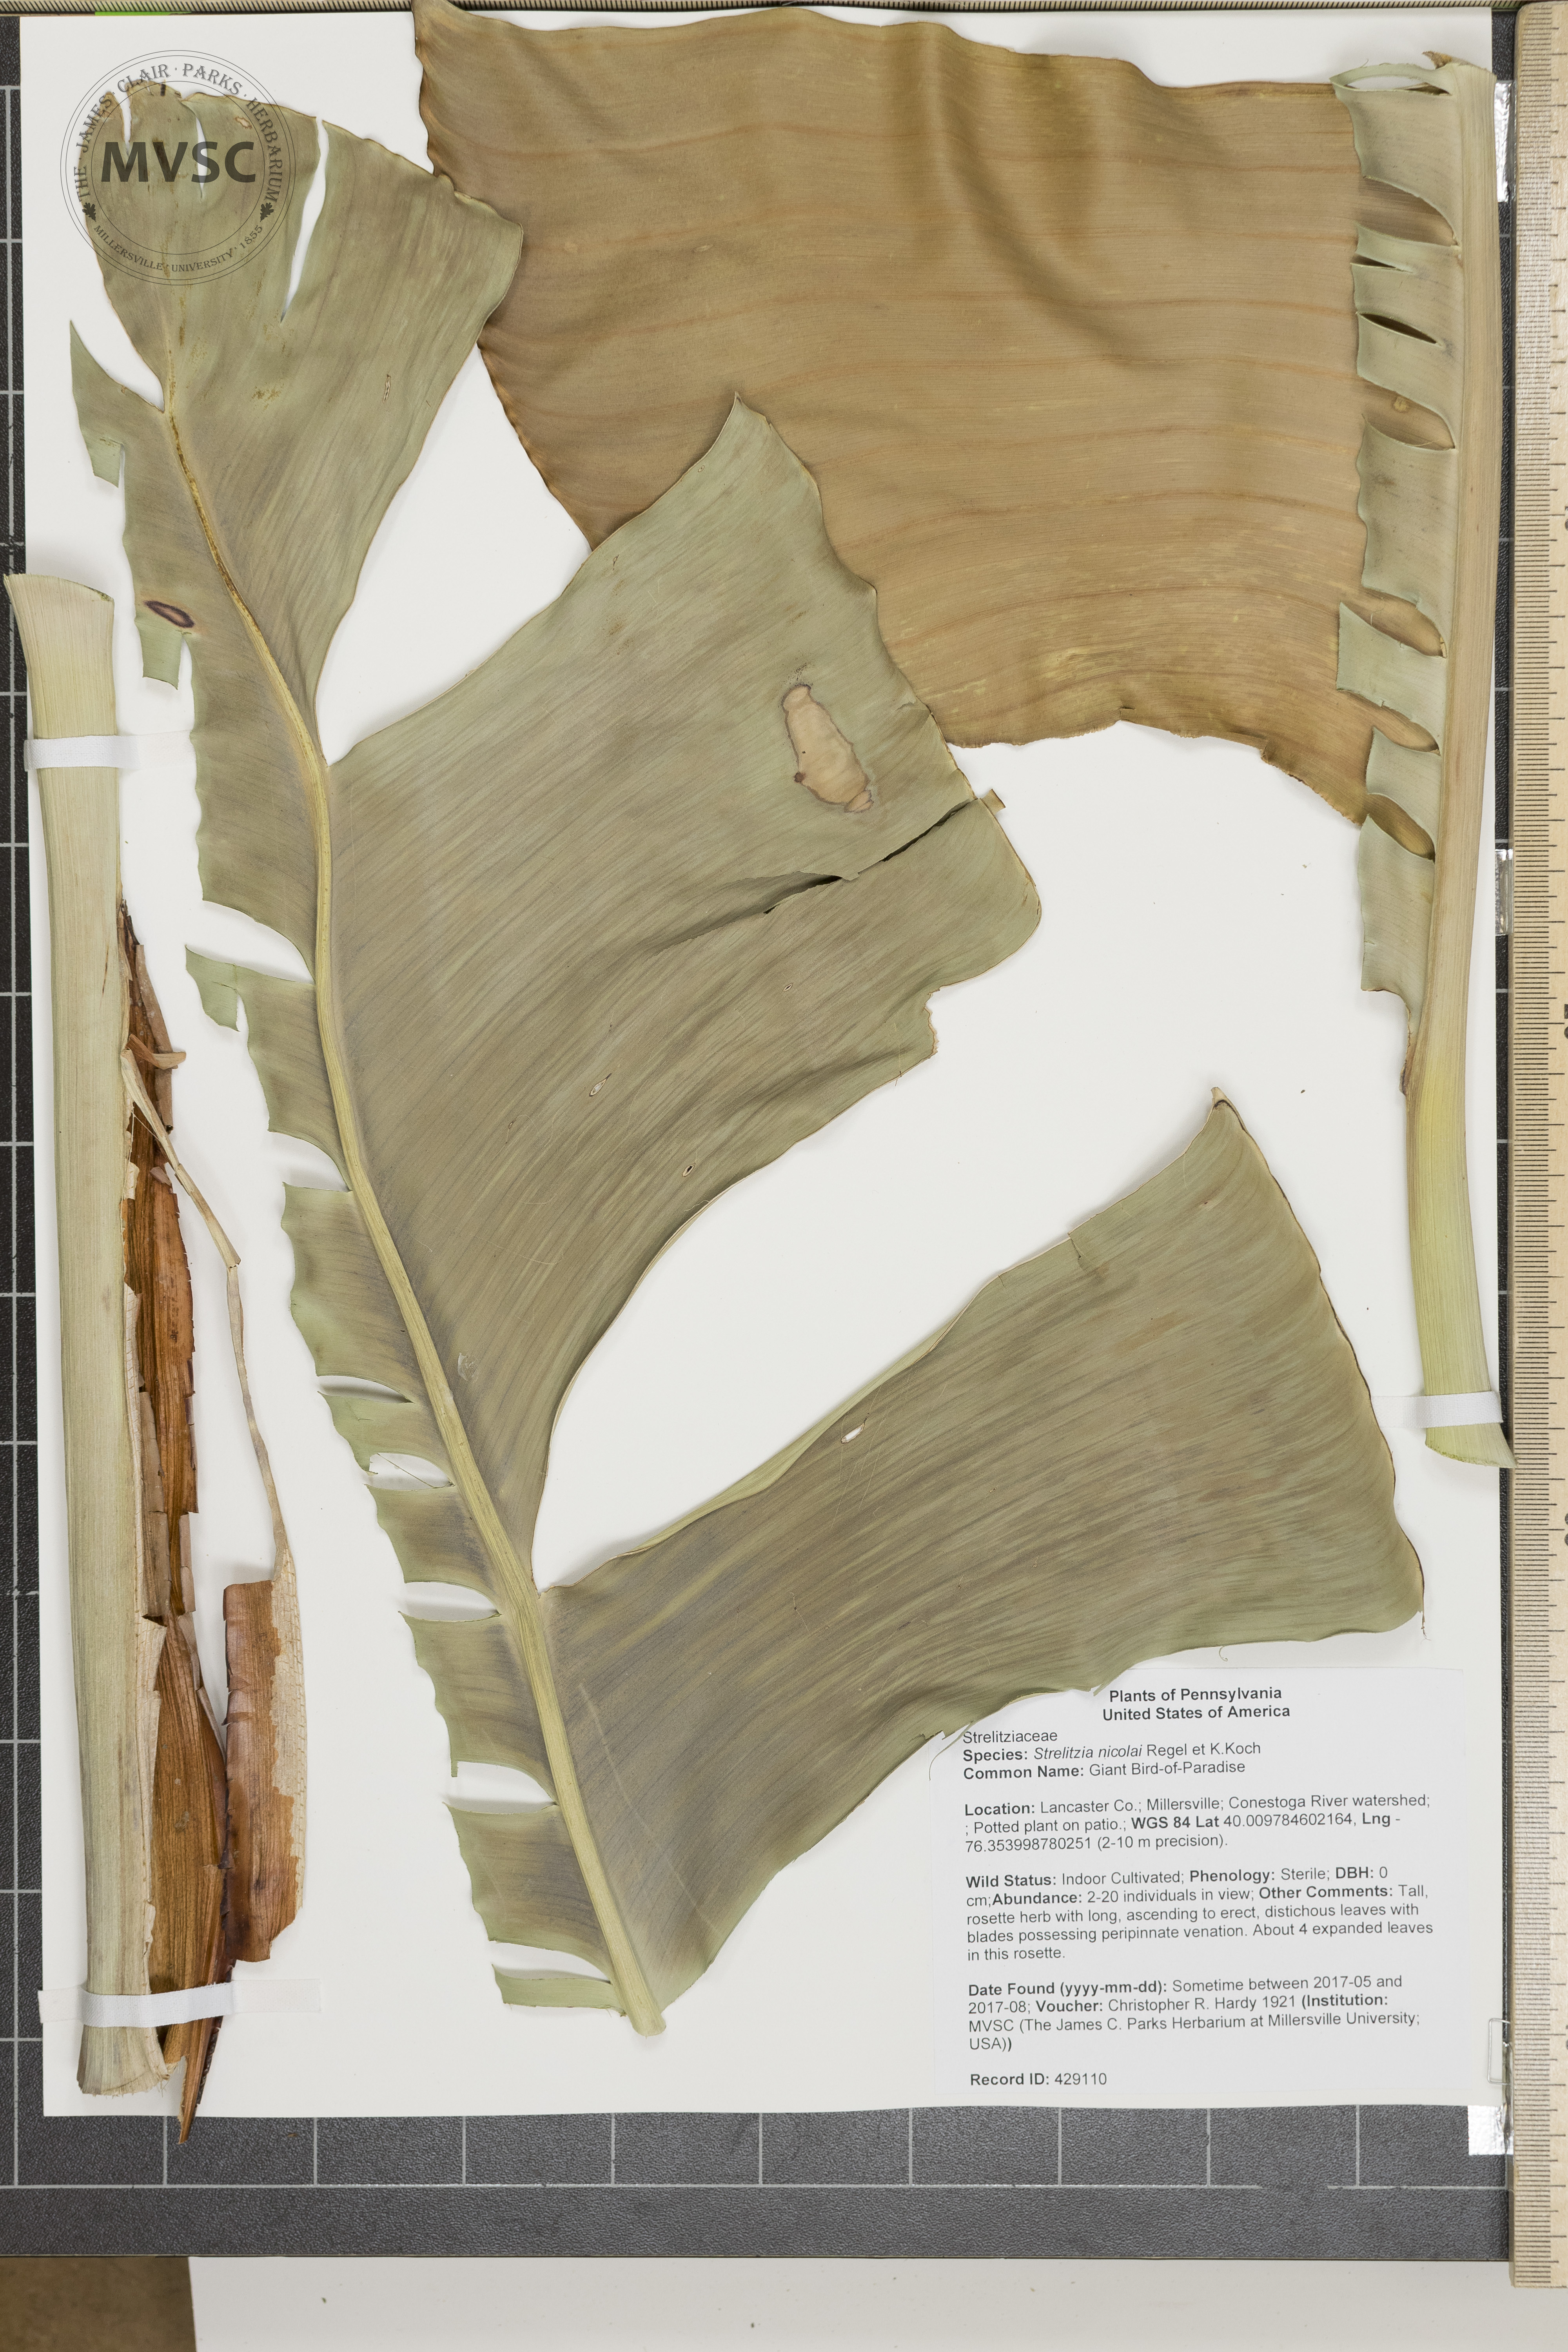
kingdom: Plantae
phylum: Tracheophyta
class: Liliopsida
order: Zingiberales
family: Strelitziaceae
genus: Strelitzia
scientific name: Strelitzia nicolai
